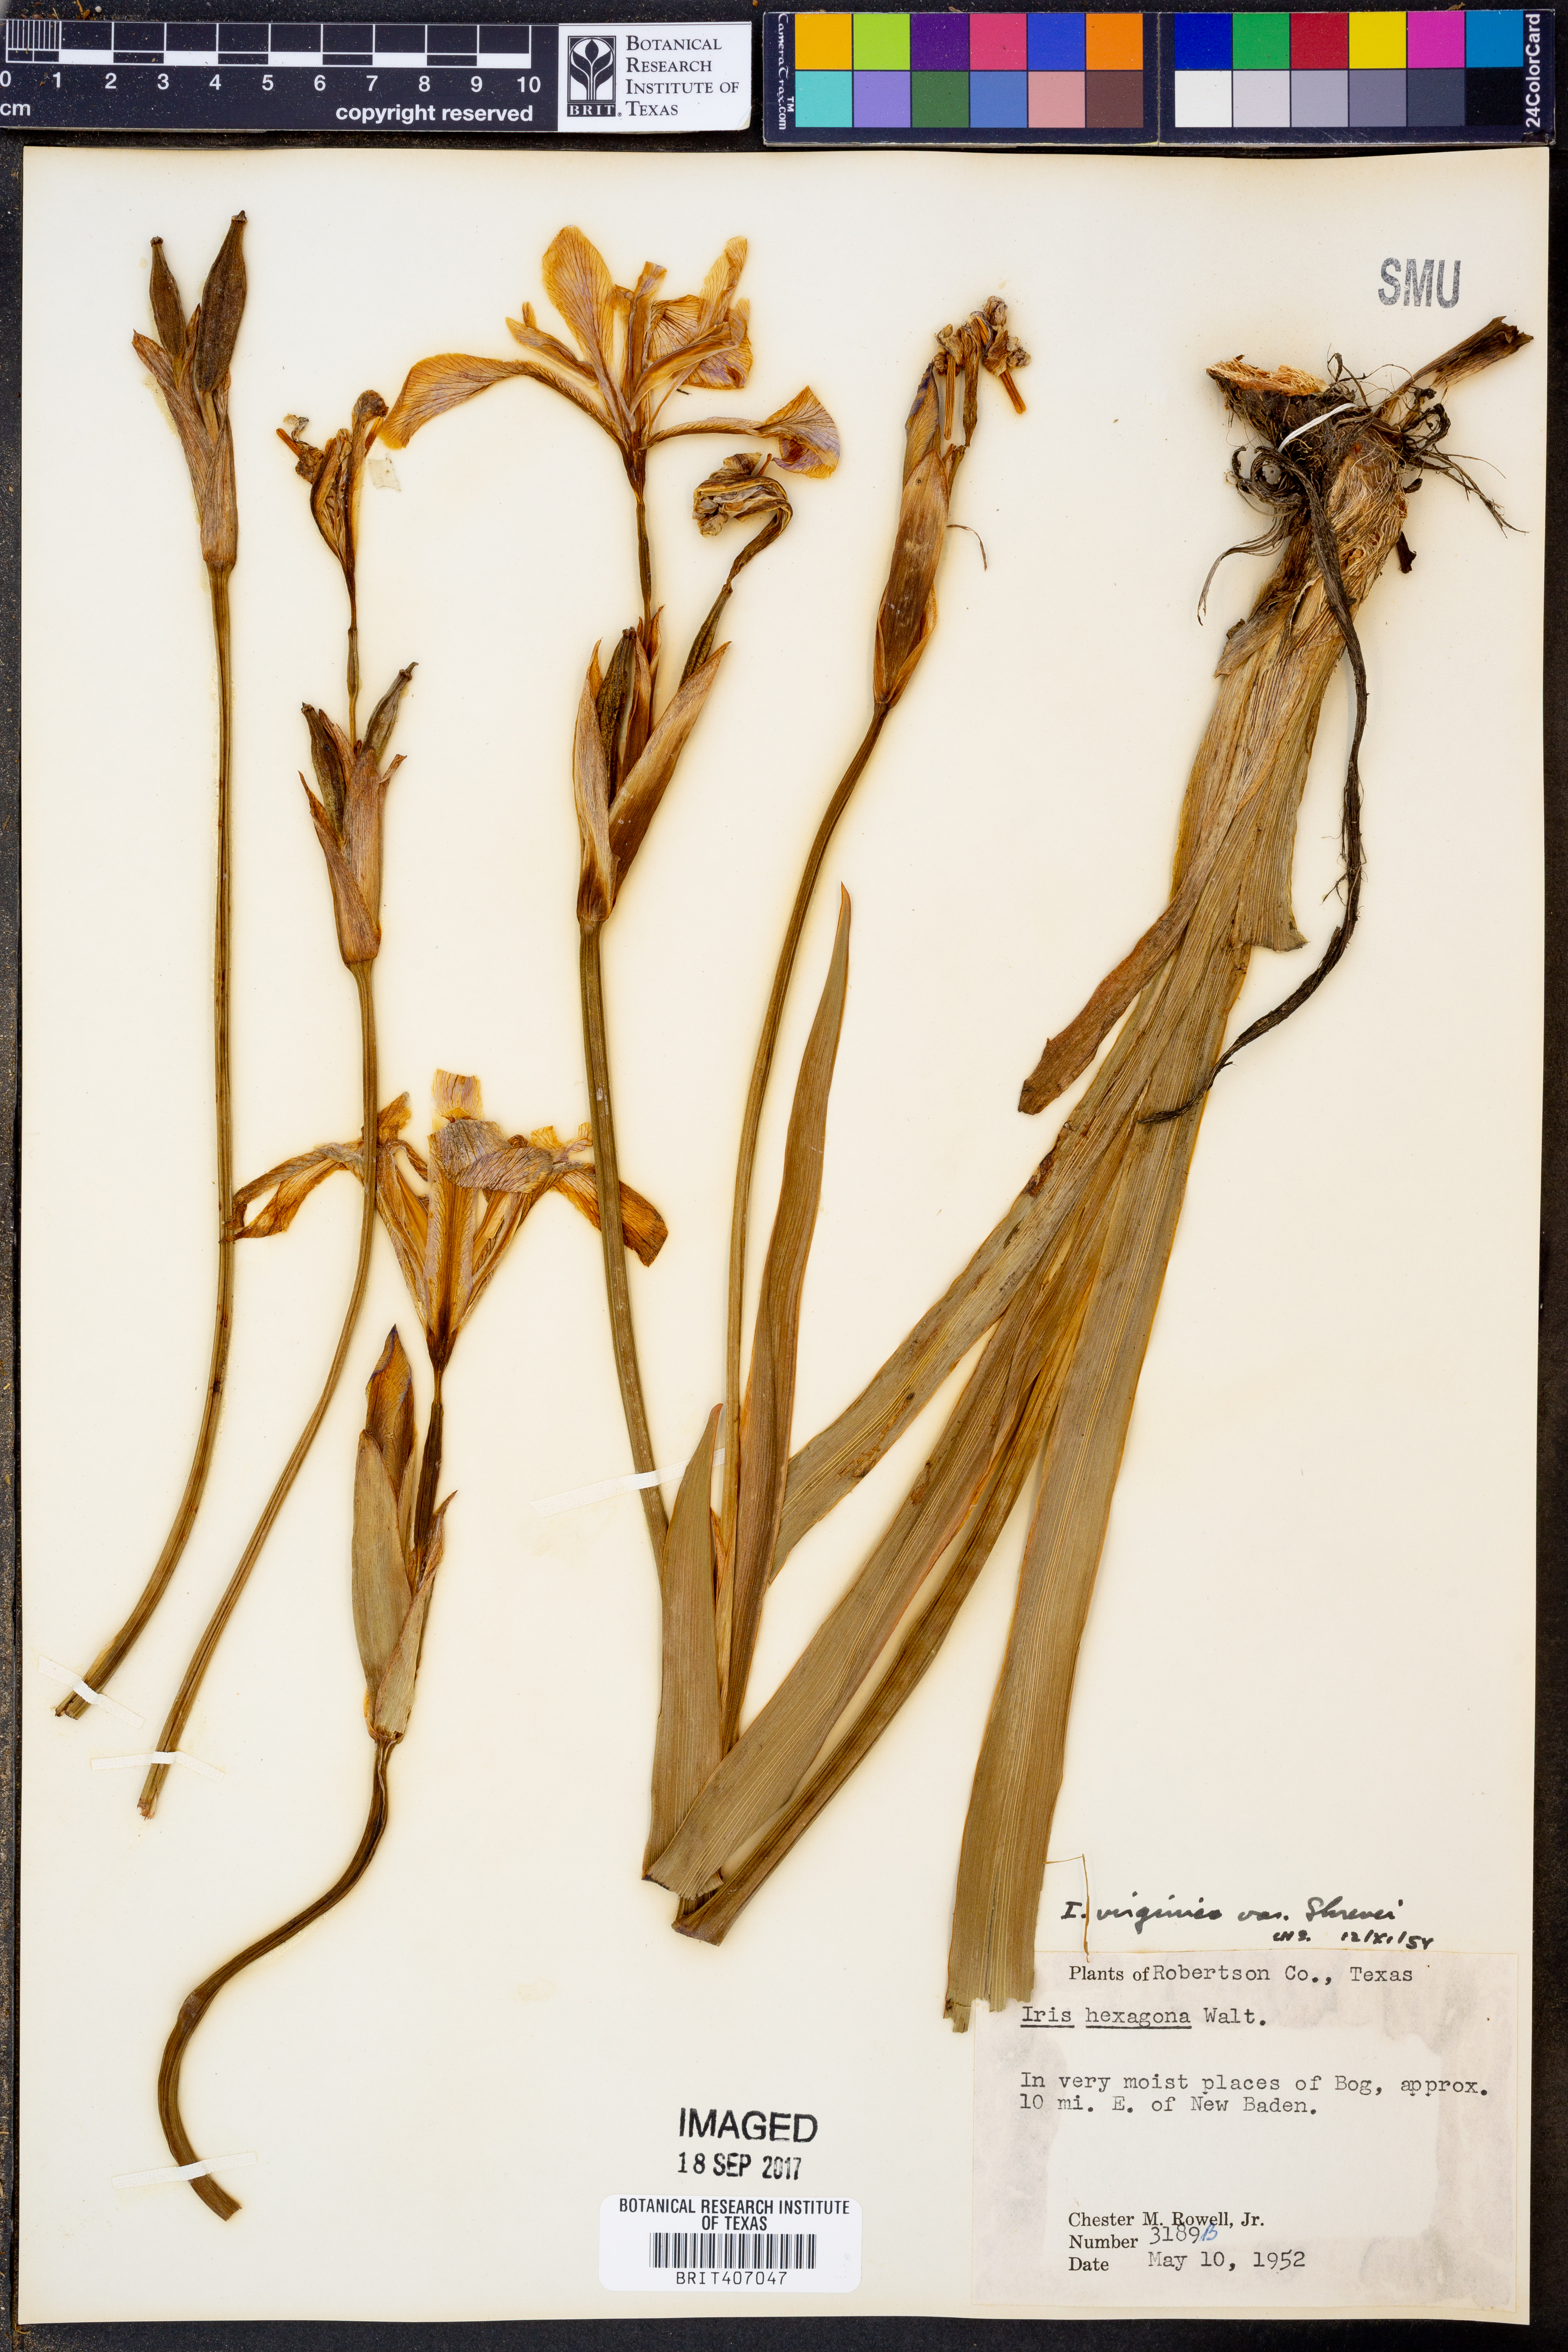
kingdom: Plantae
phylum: Tracheophyta
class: Liliopsida
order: Asparagales
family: Iridaceae
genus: Iris
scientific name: Iris virginica
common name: Southern blue flag
